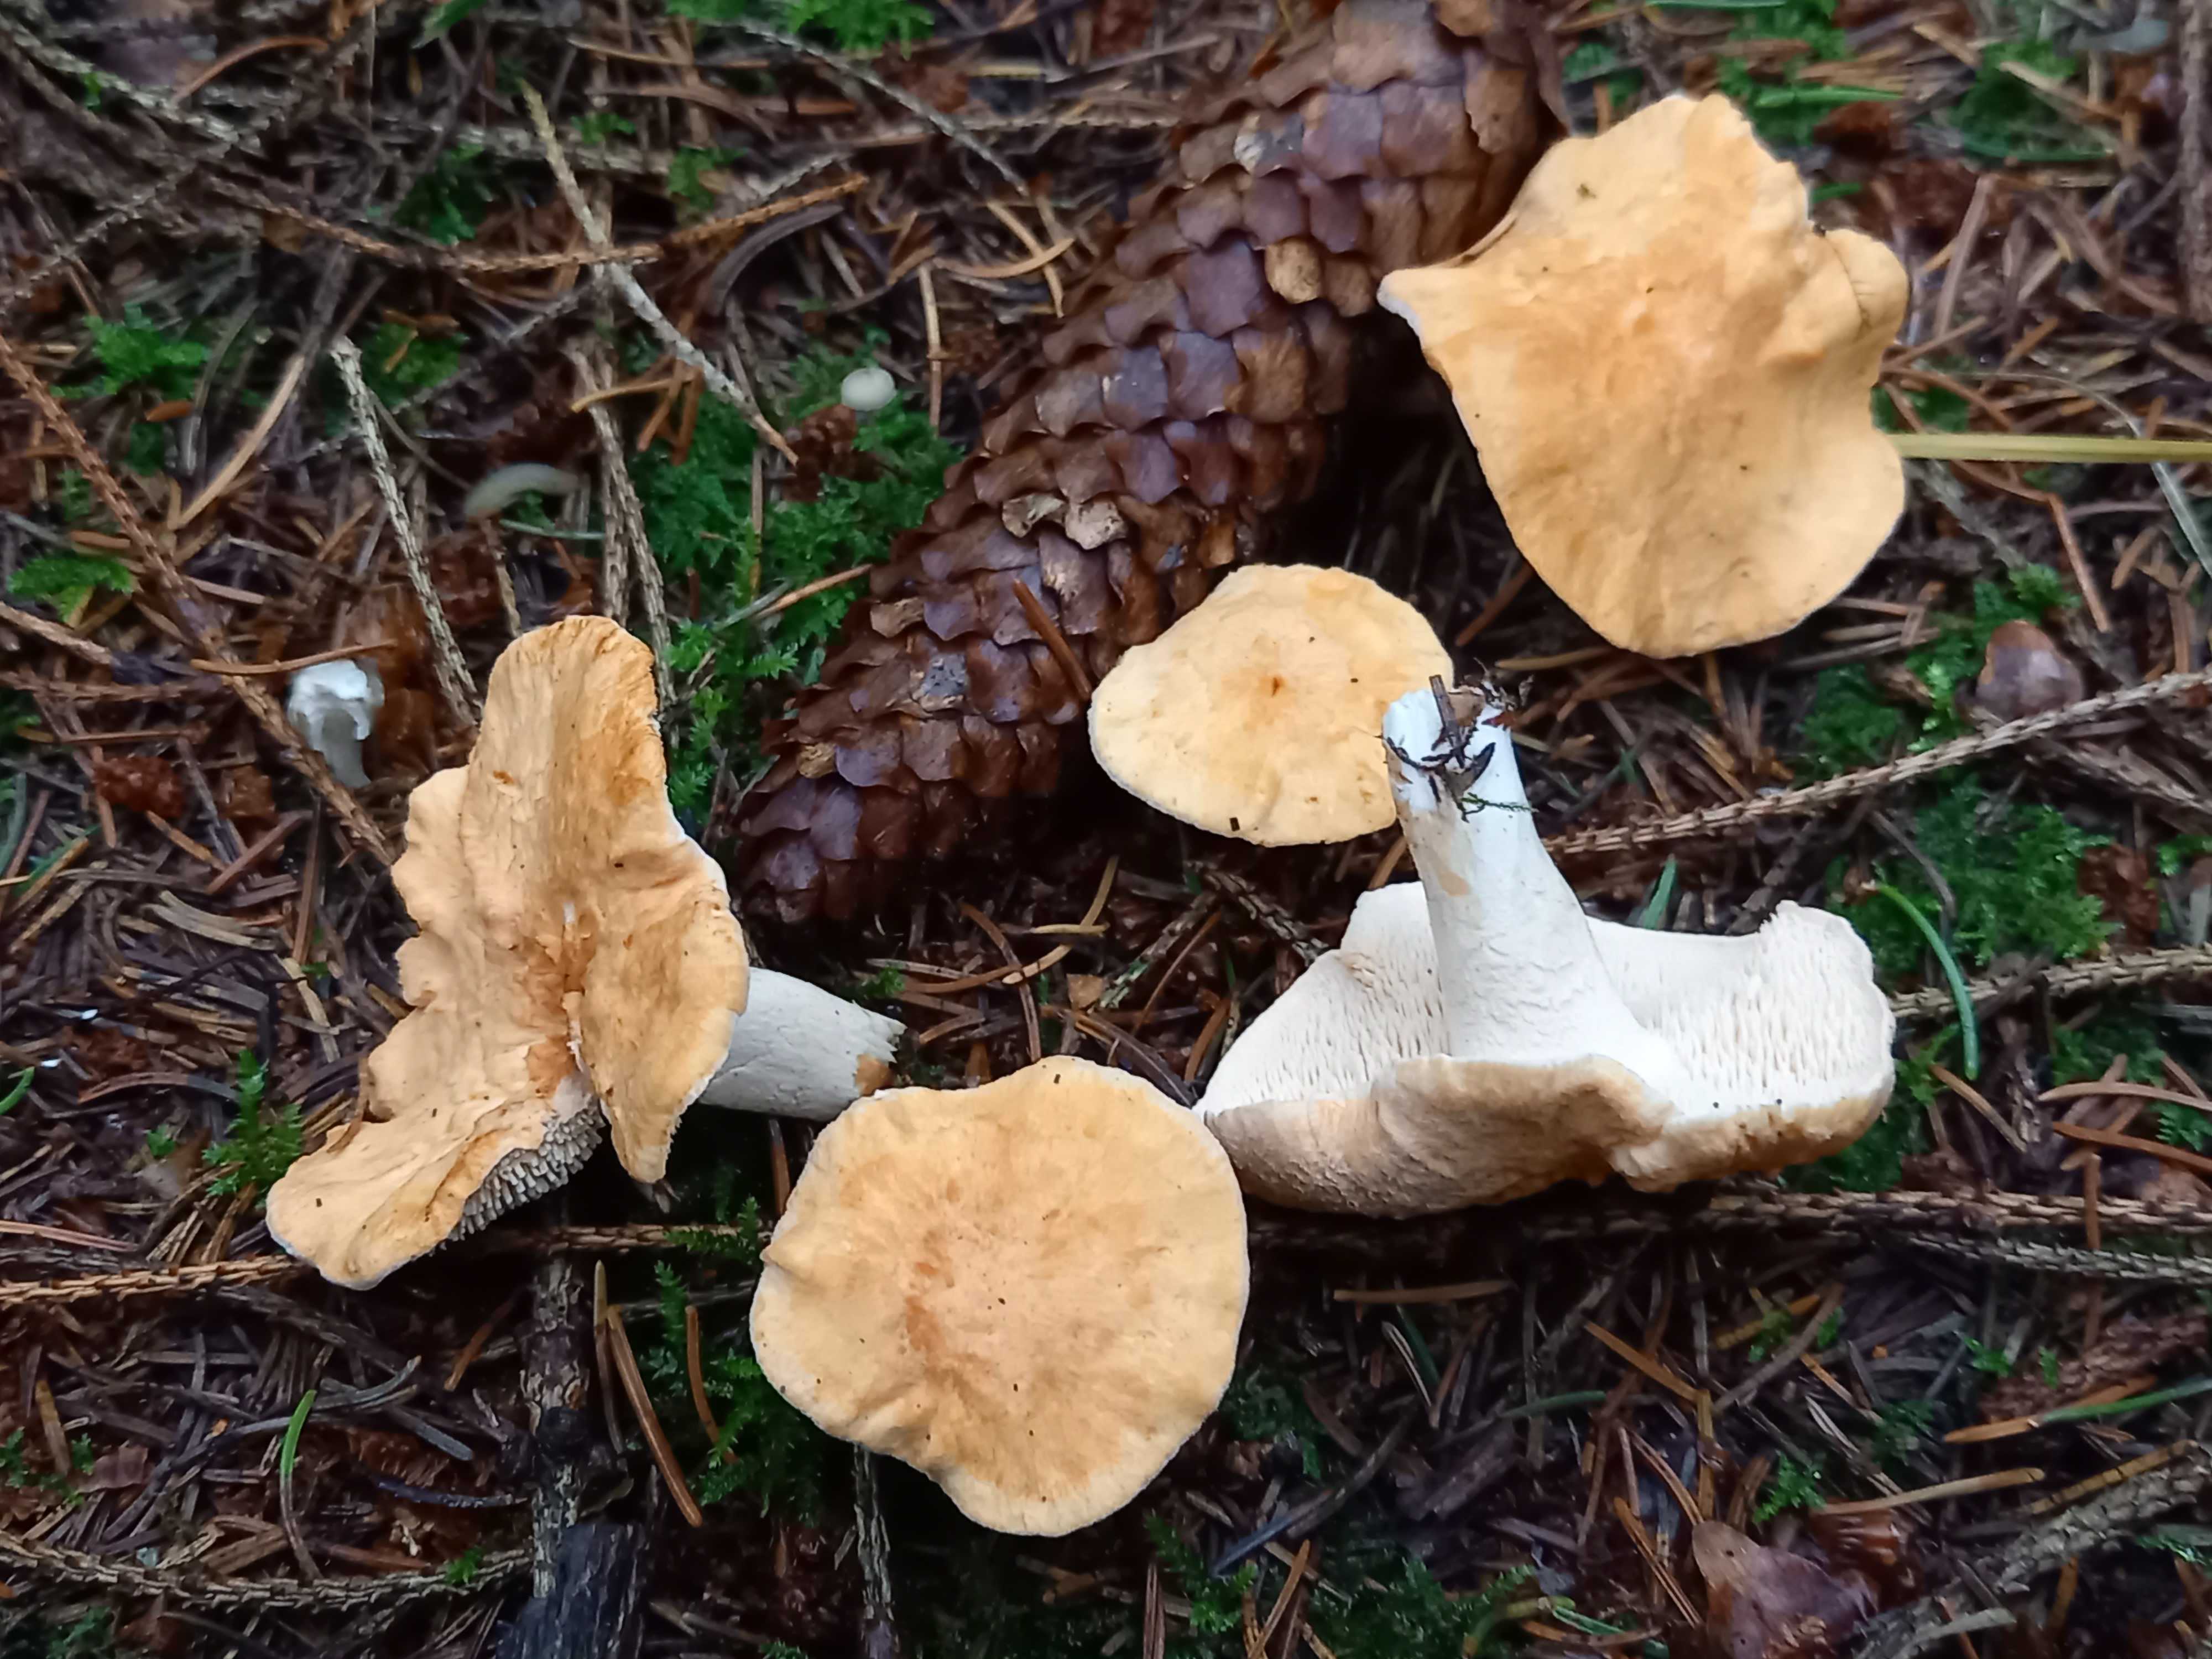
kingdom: Fungi
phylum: Basidiomycota
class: Agaricomycetes
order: Cantharellales
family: Hydnaceae
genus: Hydnum
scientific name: Hydnum
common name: pigsvamp
